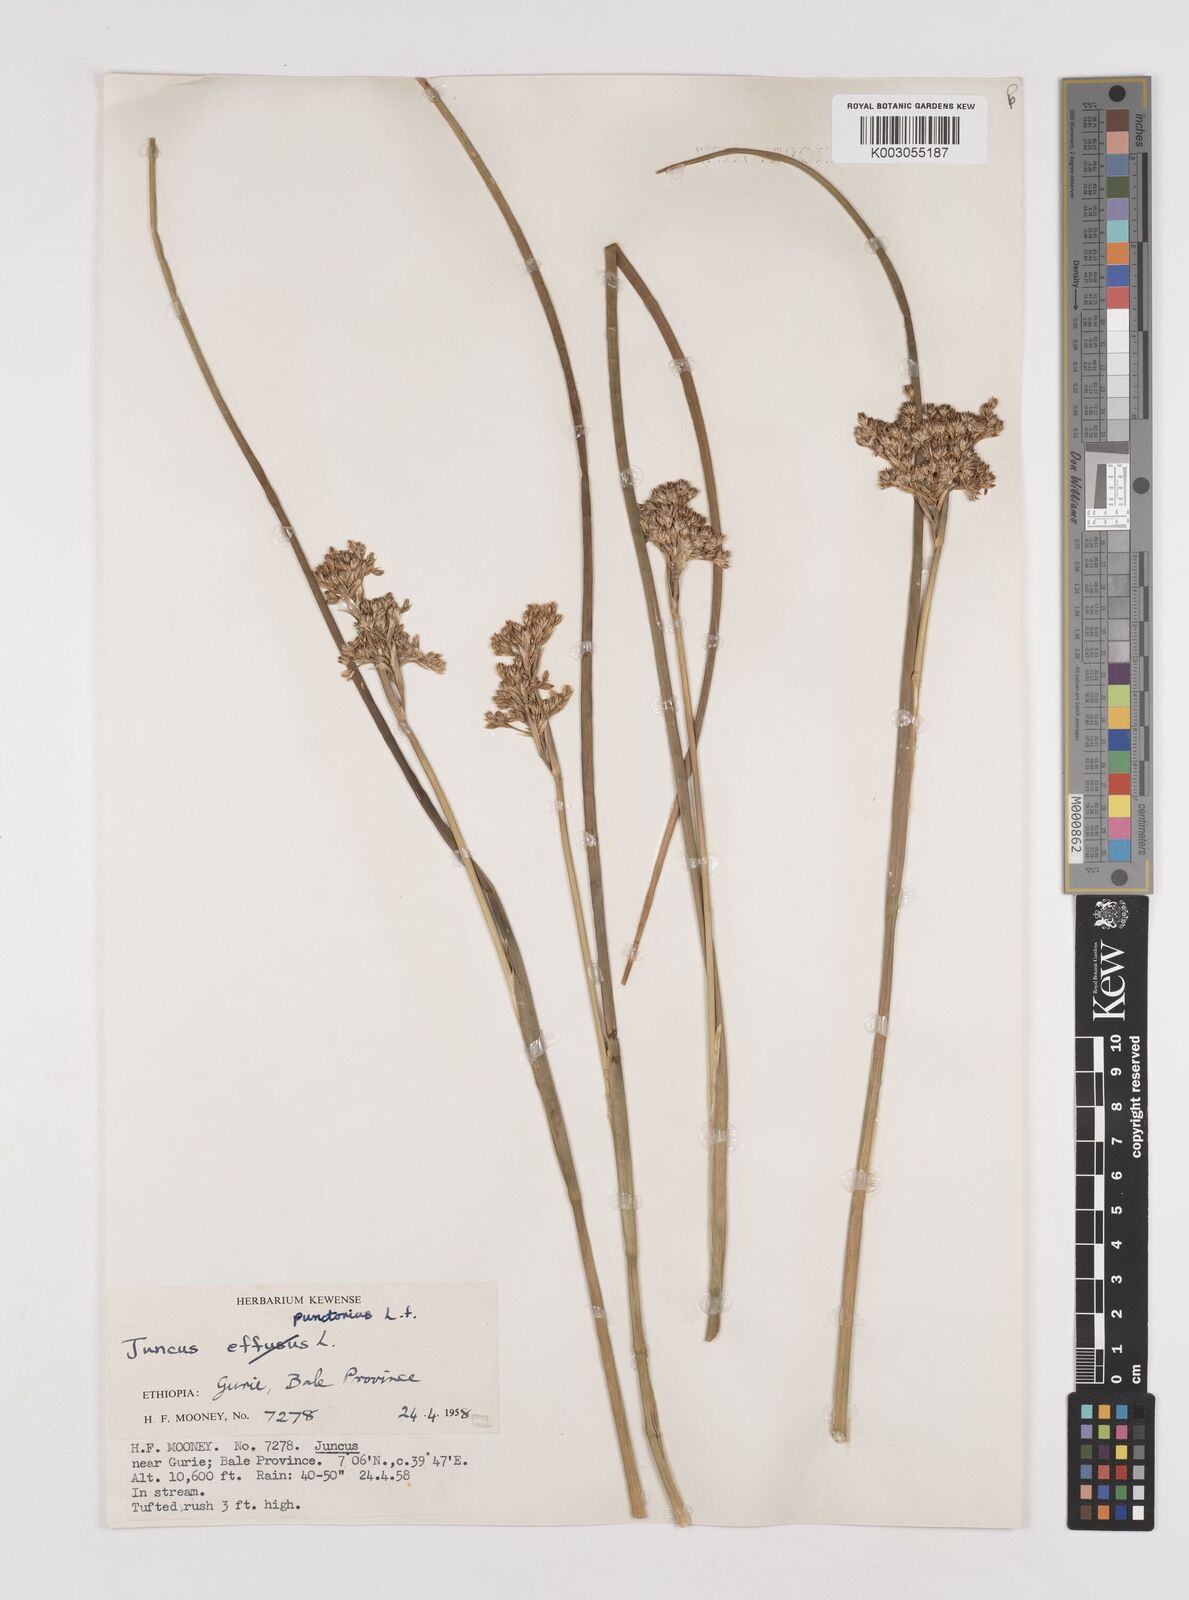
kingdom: Plantae
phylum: Tracheophyta
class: Liliopsida
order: Poales
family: Juncaceae
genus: Juncus
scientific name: Juncus punctorius
